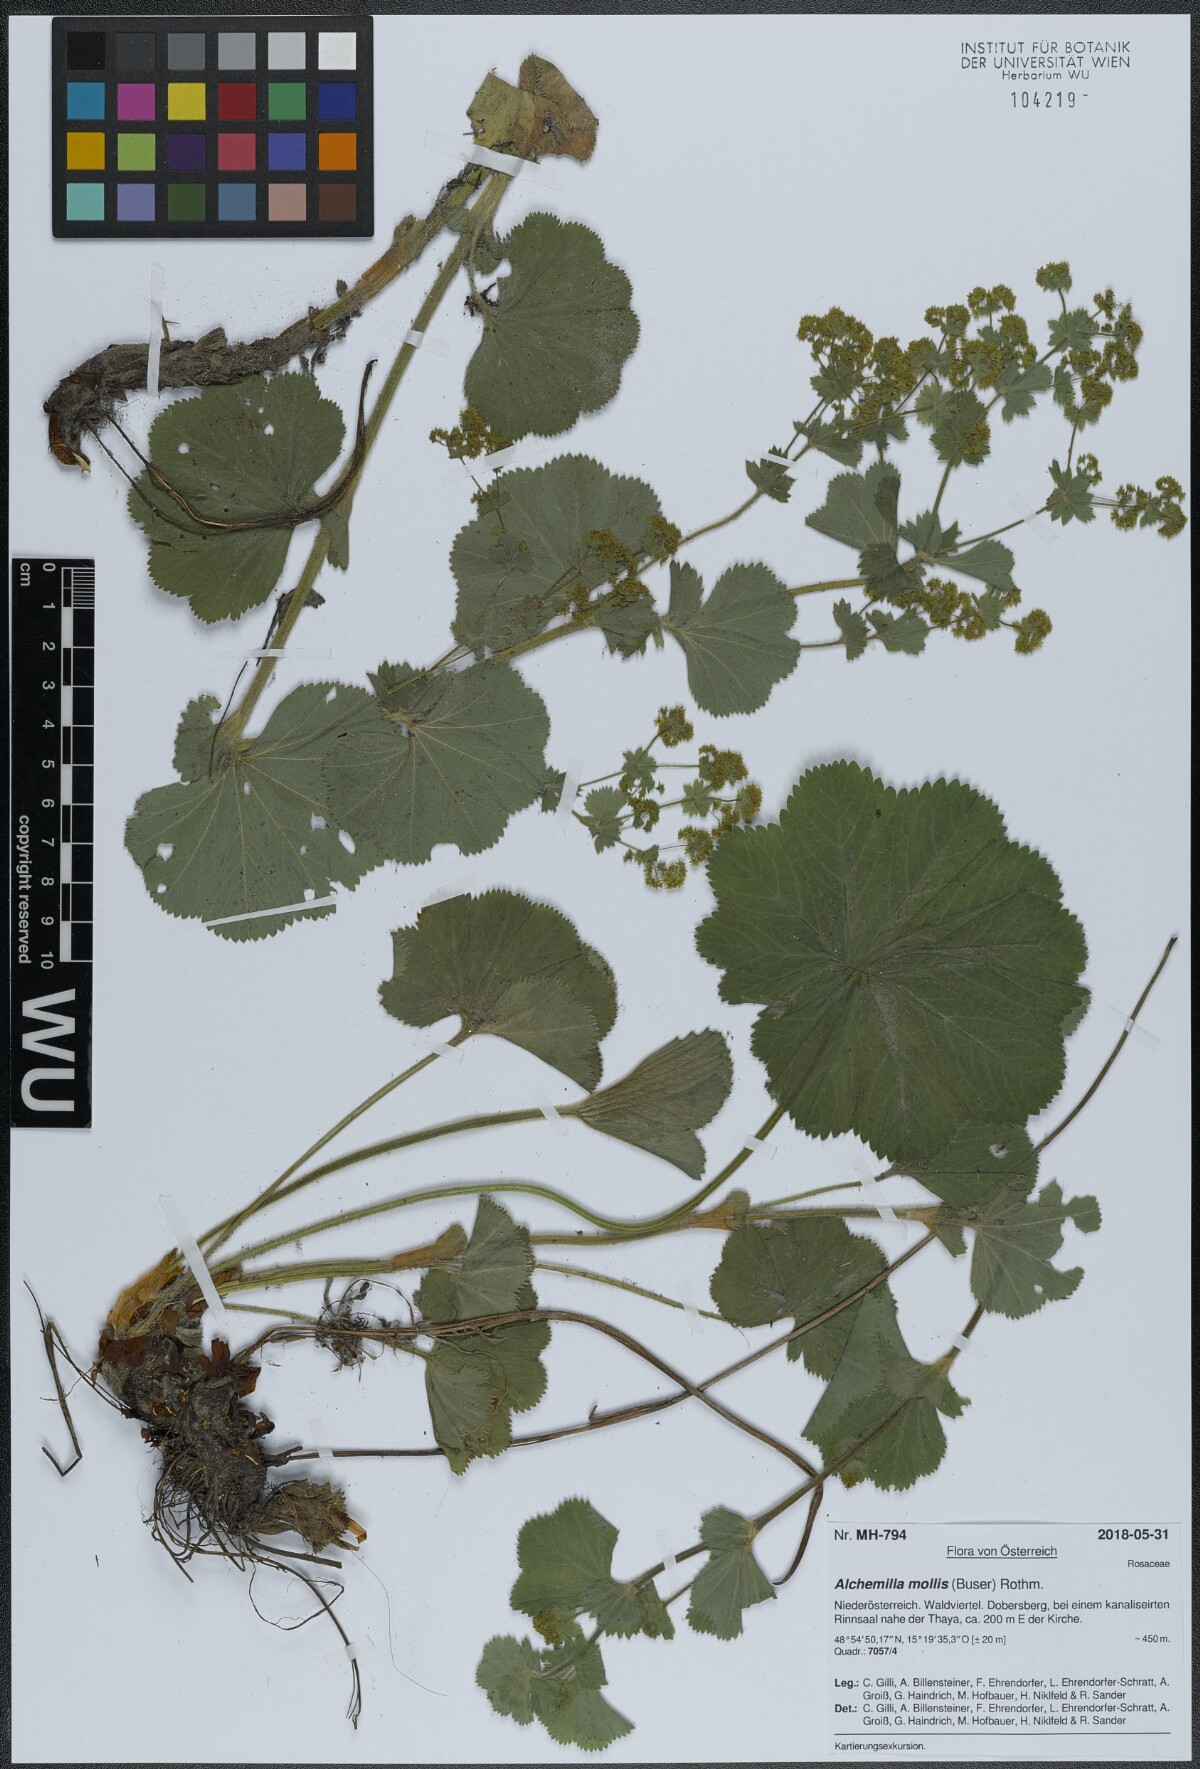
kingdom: Plantae
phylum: Tracheophyta
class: Magnoliopsida
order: Rosales
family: Rosaceae
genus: Alchemilla
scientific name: Alchemilla mollis
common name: Lady's-mantle
